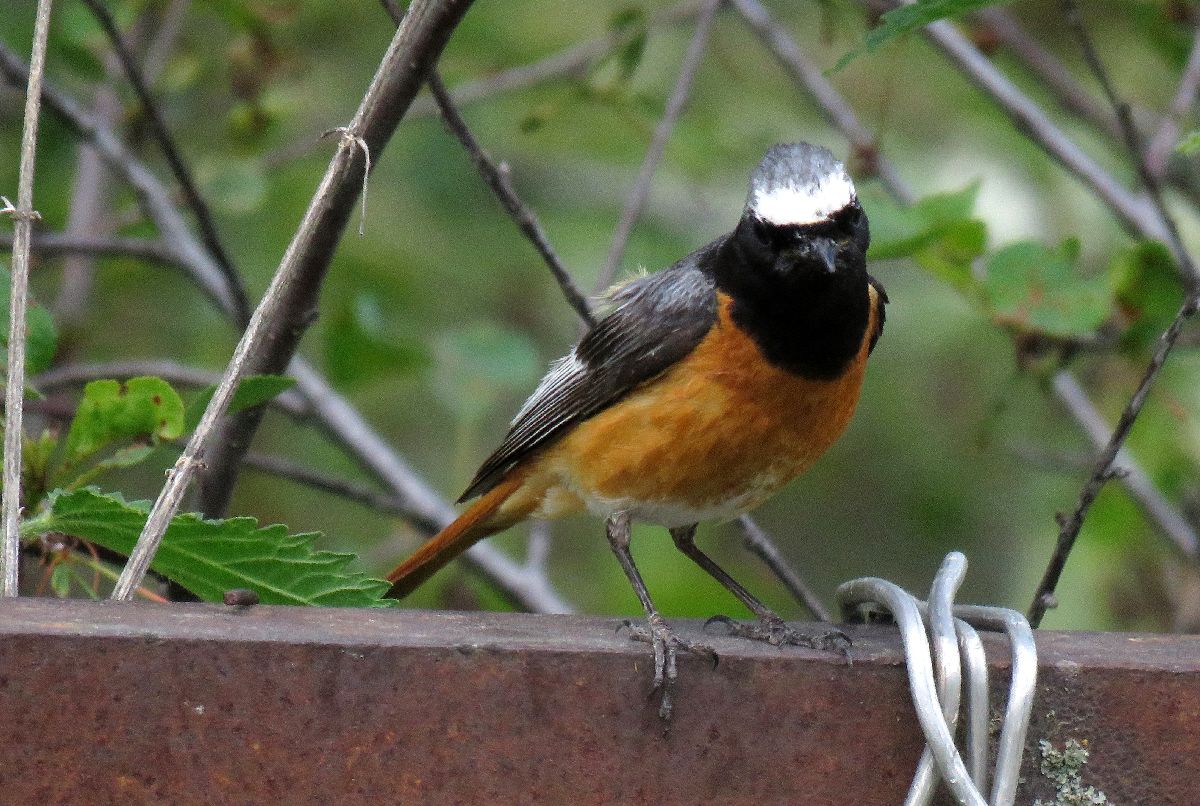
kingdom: Animalia
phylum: Chordata
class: Aves
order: Passeriformes
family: Muscicapidae
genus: Phoenicurus
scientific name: Phoenicurus phoenicurus
